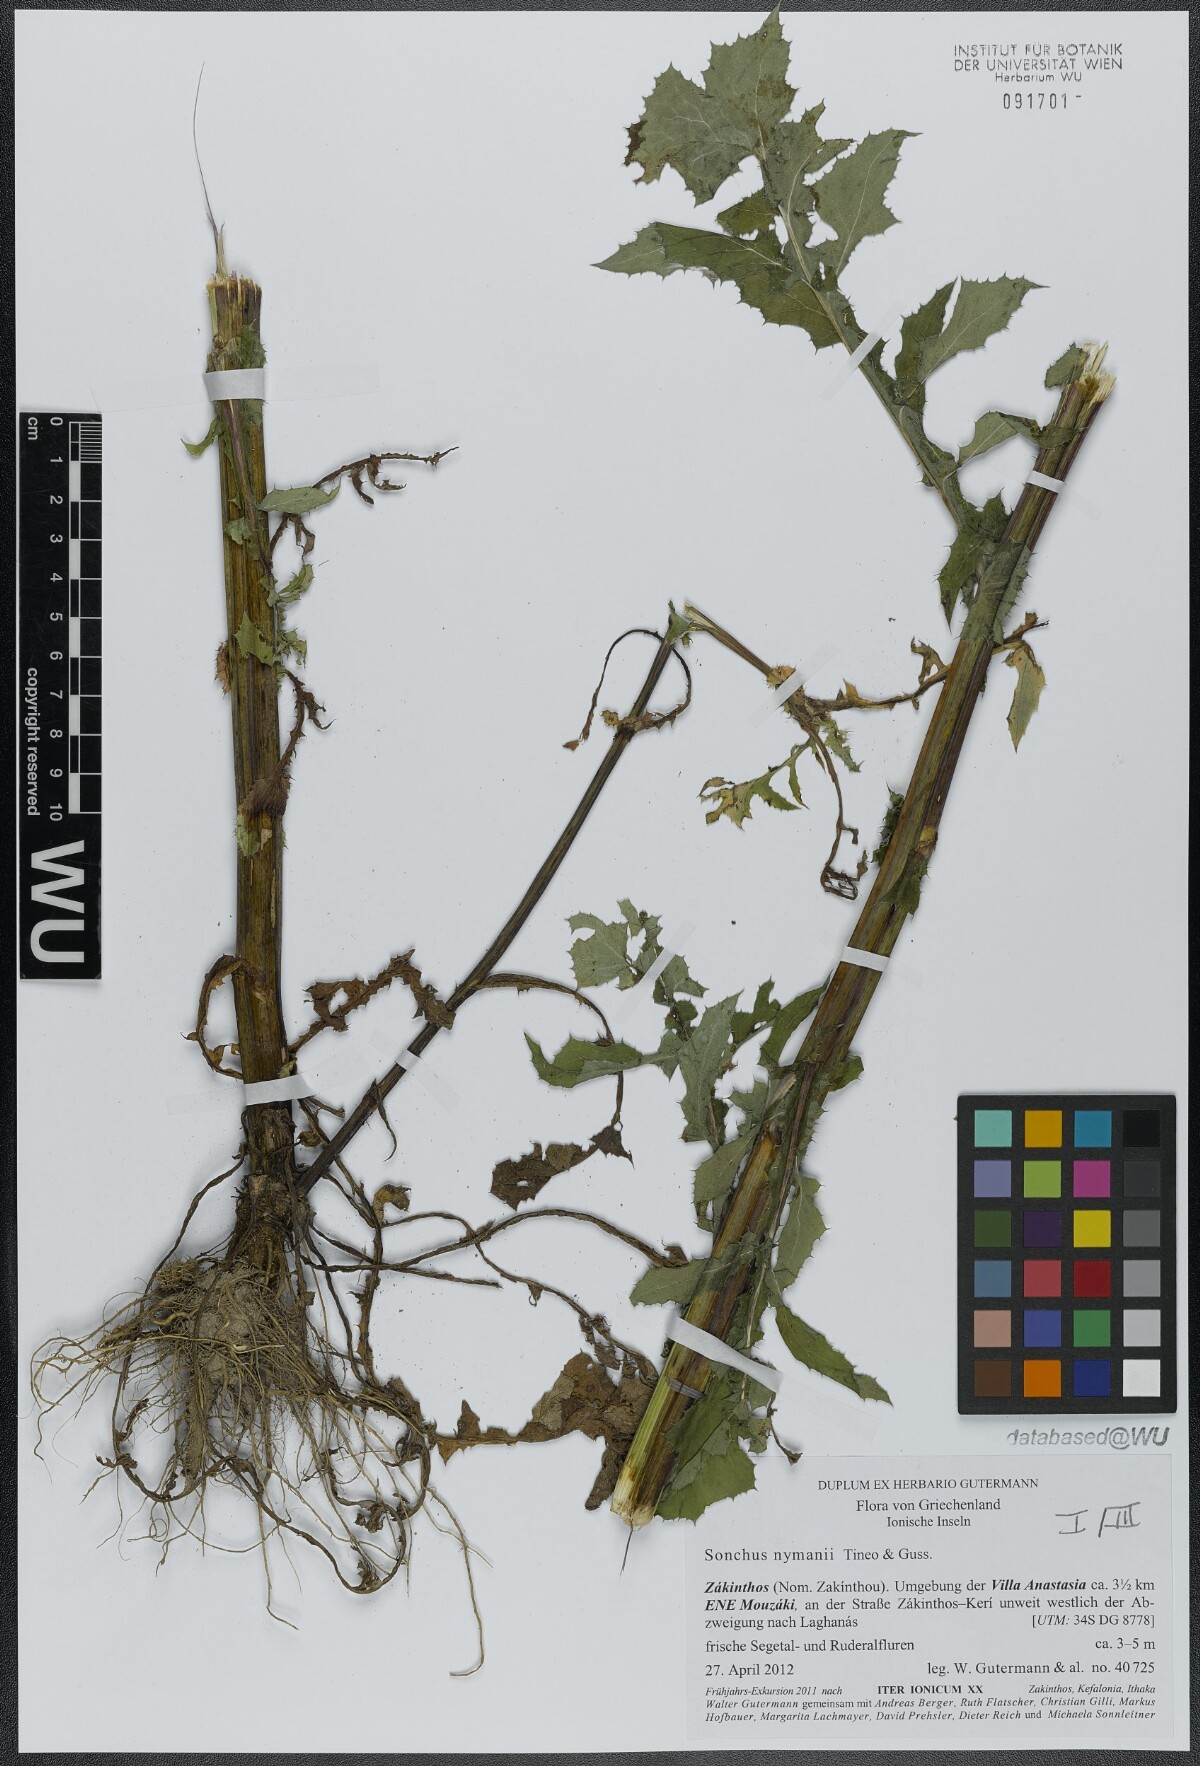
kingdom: Plantae
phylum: Tracheophyta
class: Magnoliopsida
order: Asterales
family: Asteraceae
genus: Sonchus
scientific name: Sonchus asper
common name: Prickly sow-thistle
